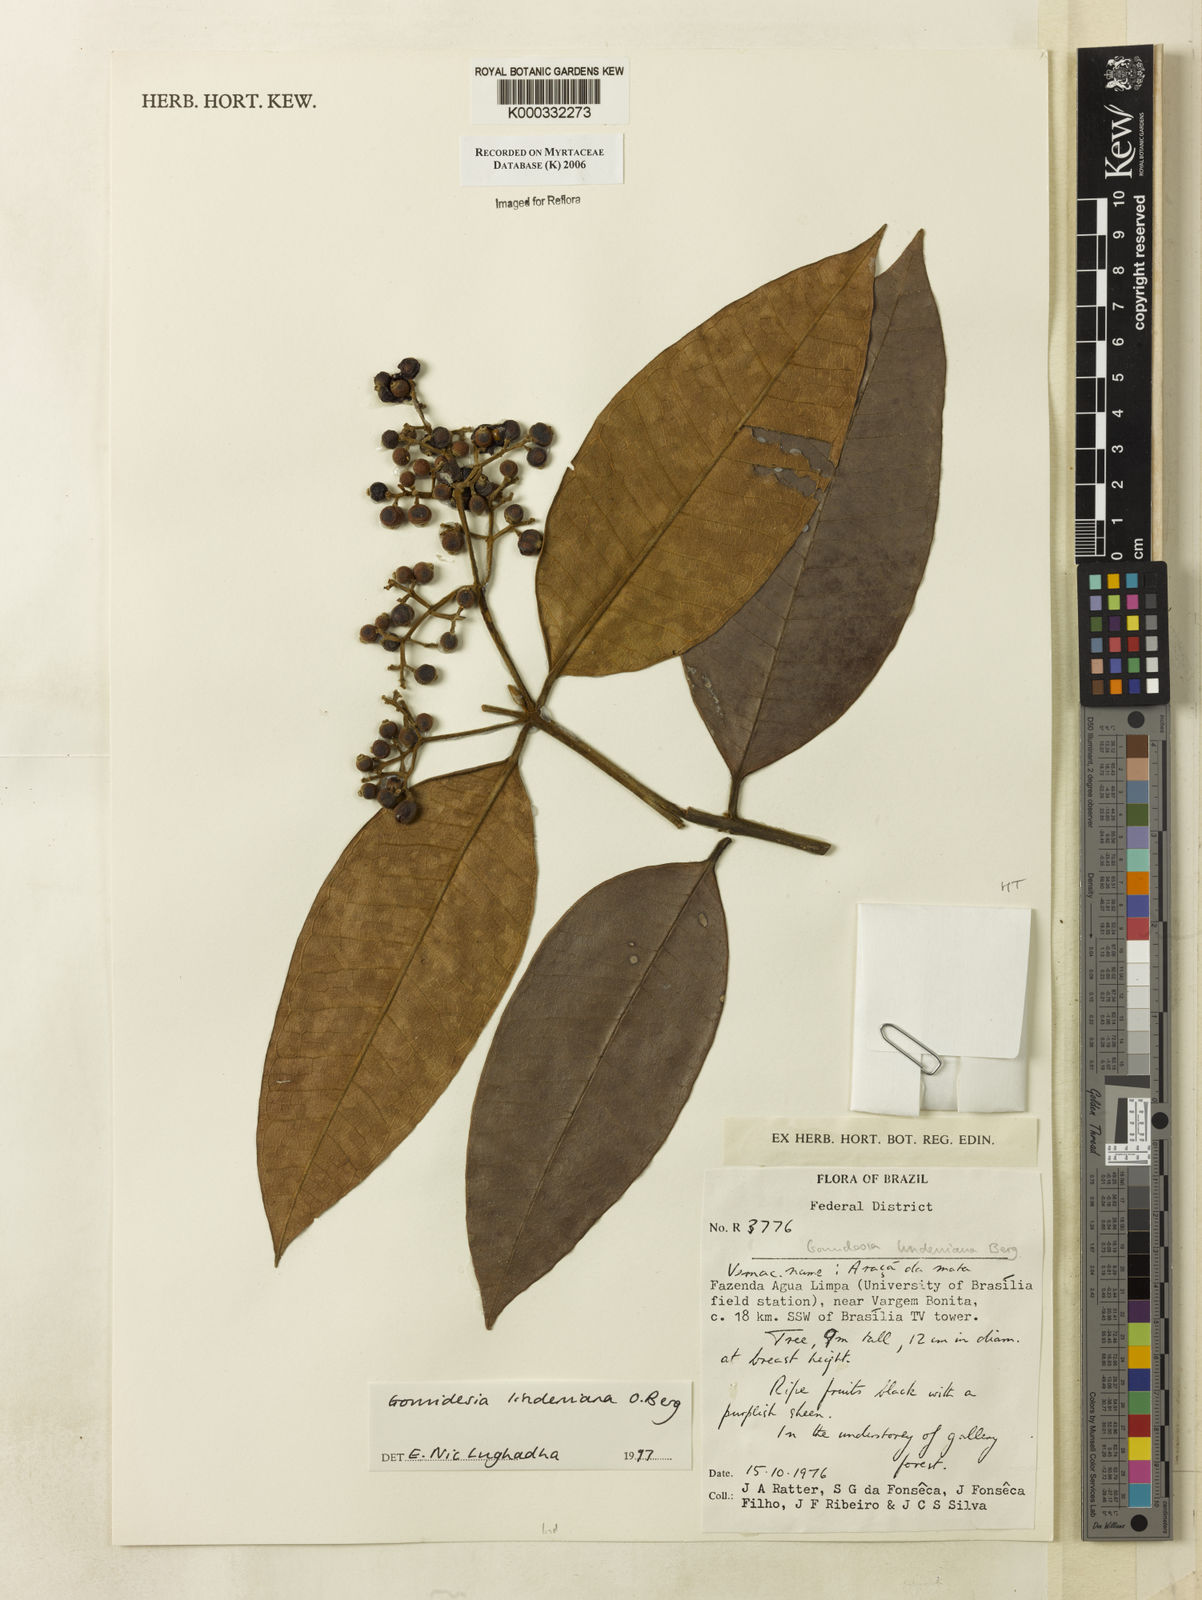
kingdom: Plantae
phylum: Tracheophyta
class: Magnoliopsida
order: Myrtales
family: Myrtaceae
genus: Myrcia
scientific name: Myrcia fenzliana
